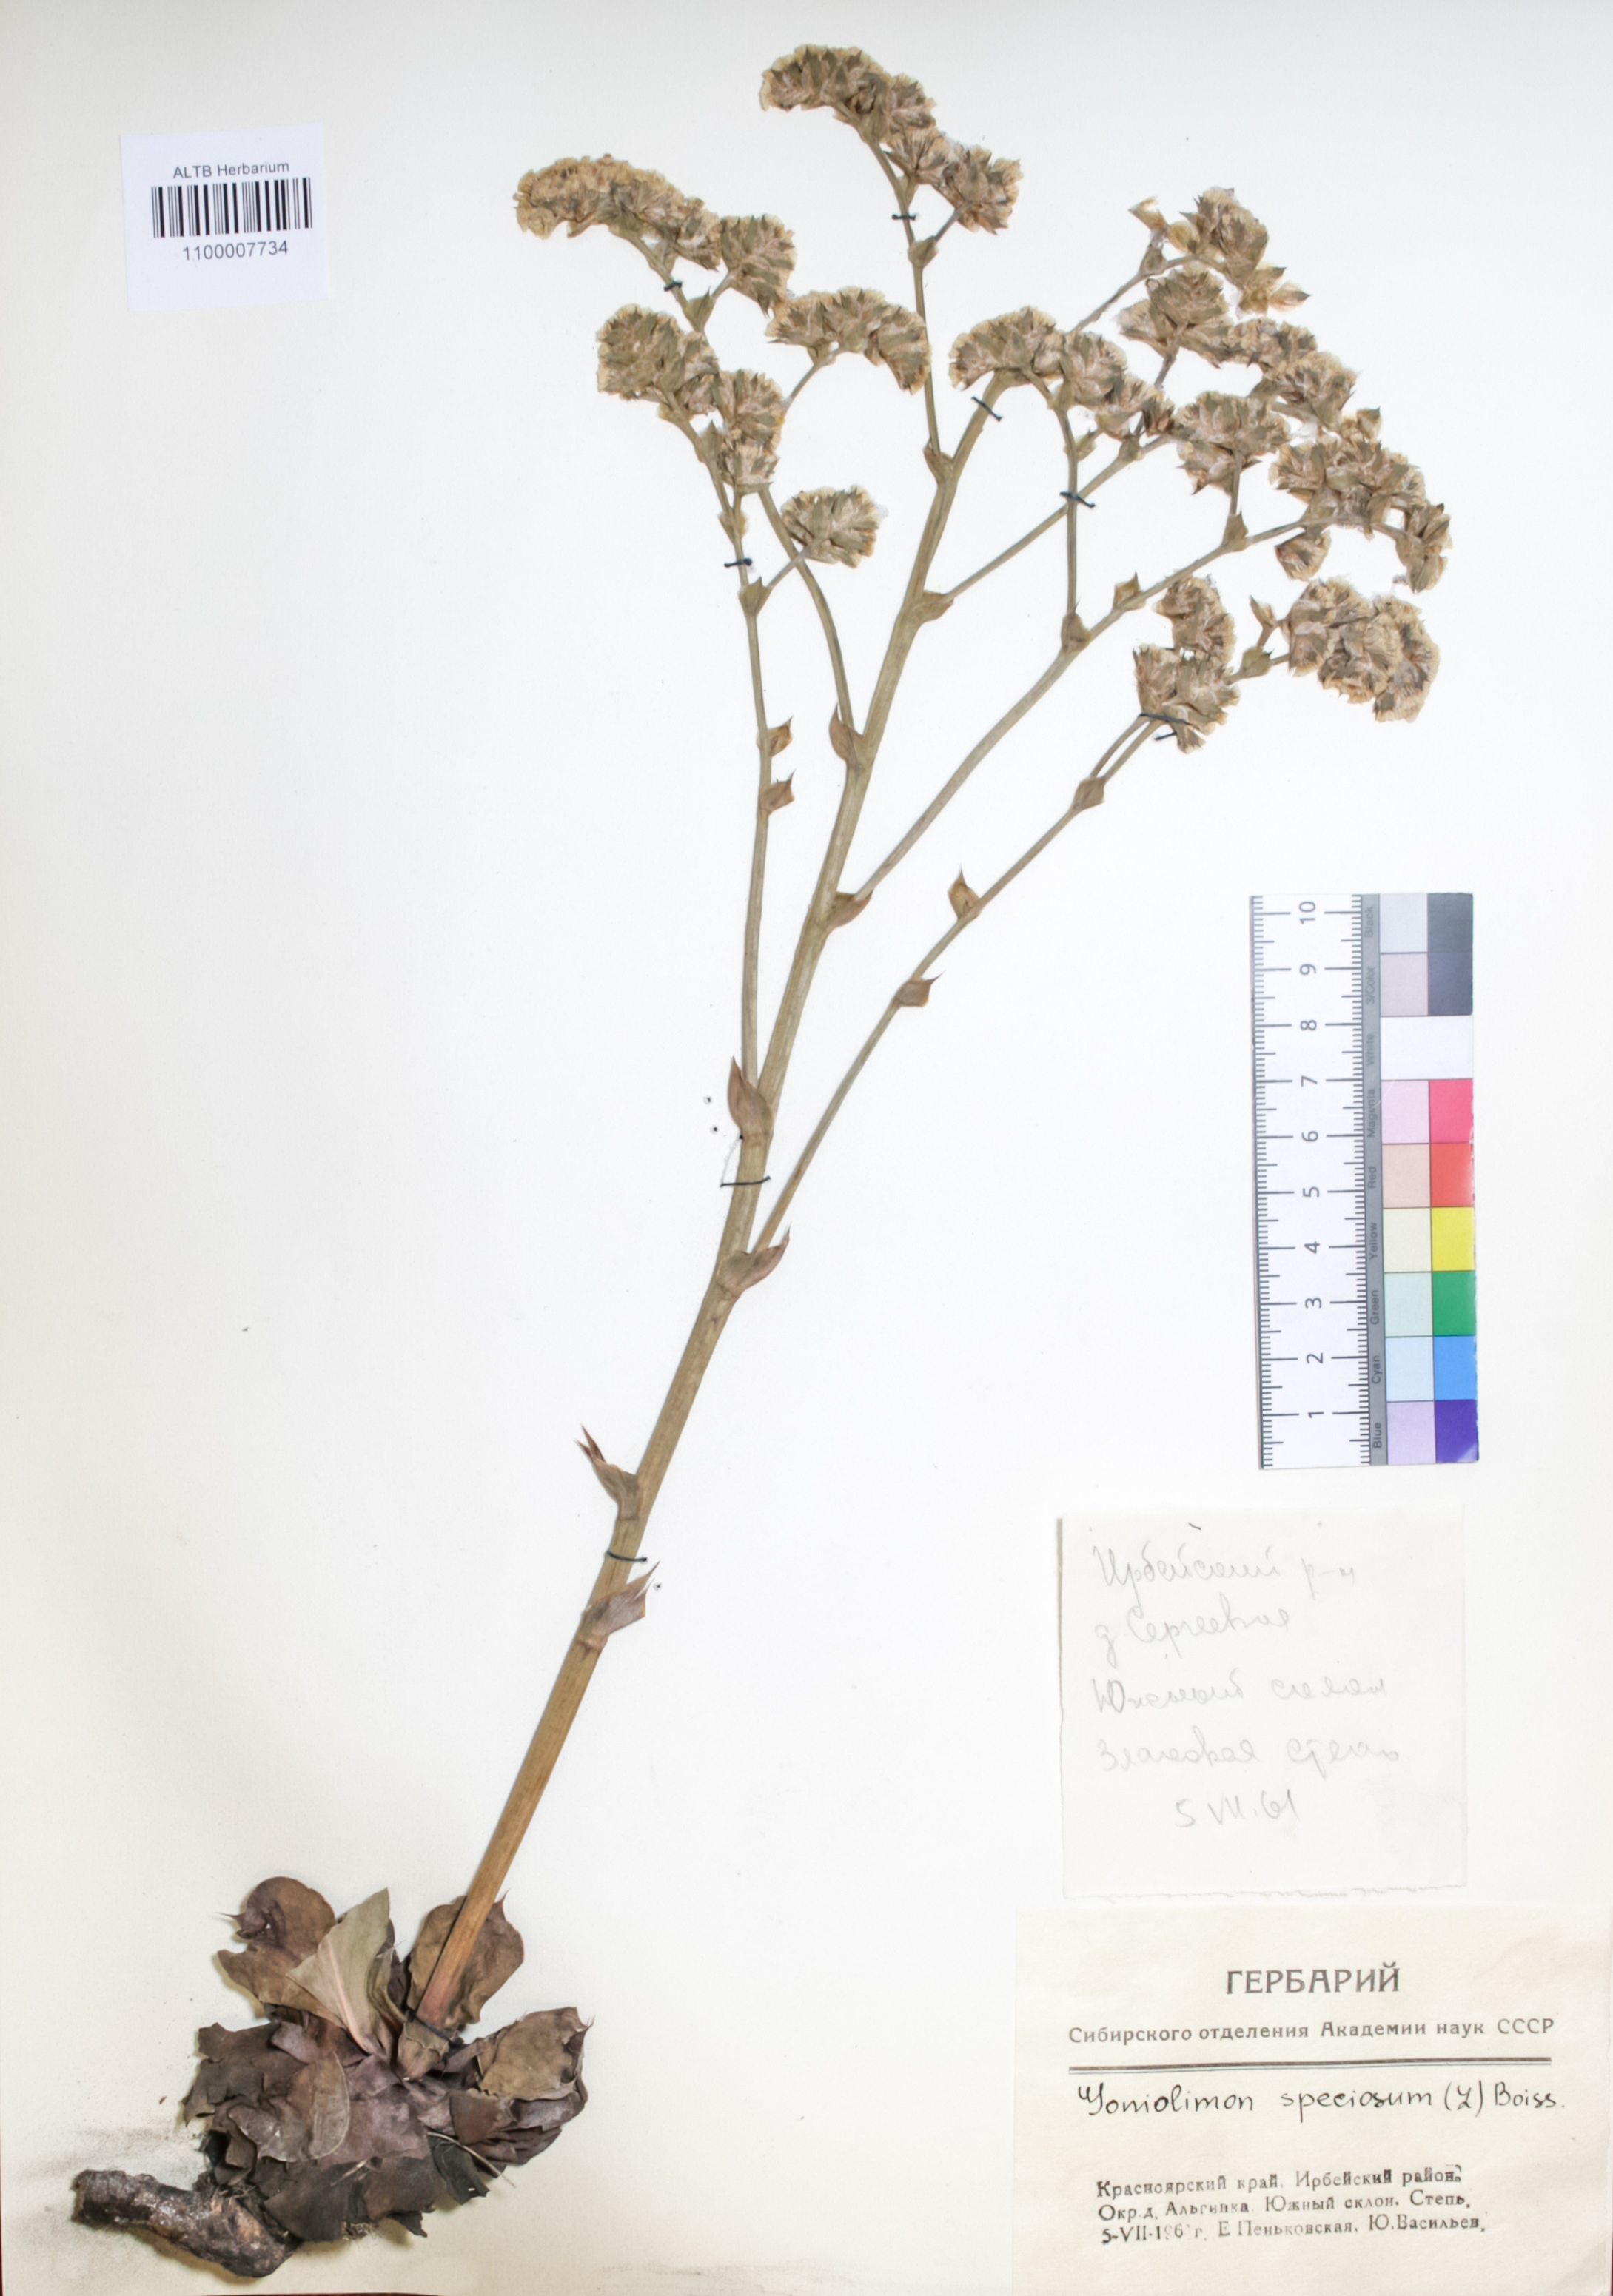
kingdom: Plantae
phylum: Tracheophyta
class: Magnoliopsida
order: Caryophyllales
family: Plumbaginaceae
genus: Goniolimon
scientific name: Goniolimon speciosum
